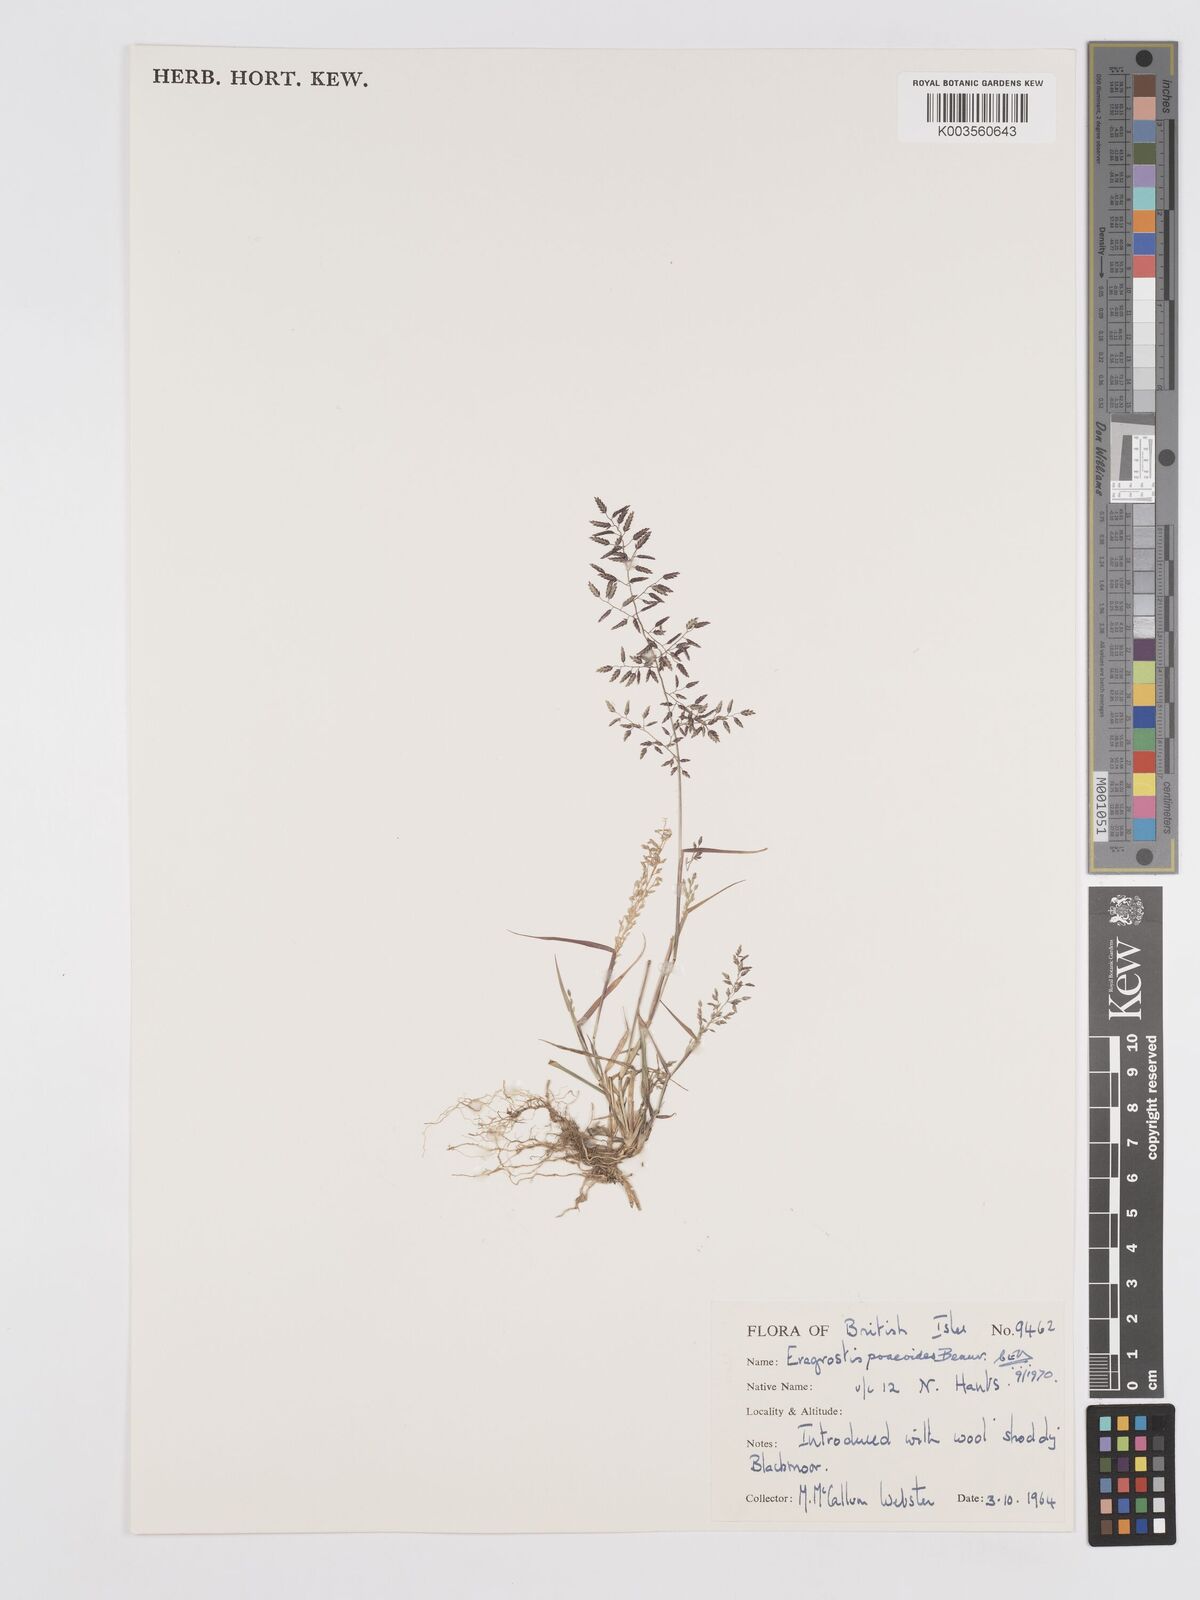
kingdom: Plantae
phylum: Tracheophyta
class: Liliopsida
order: Poales
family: Poaceae
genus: Eragrostis
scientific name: Eragrostis minor
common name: Small love-grass
